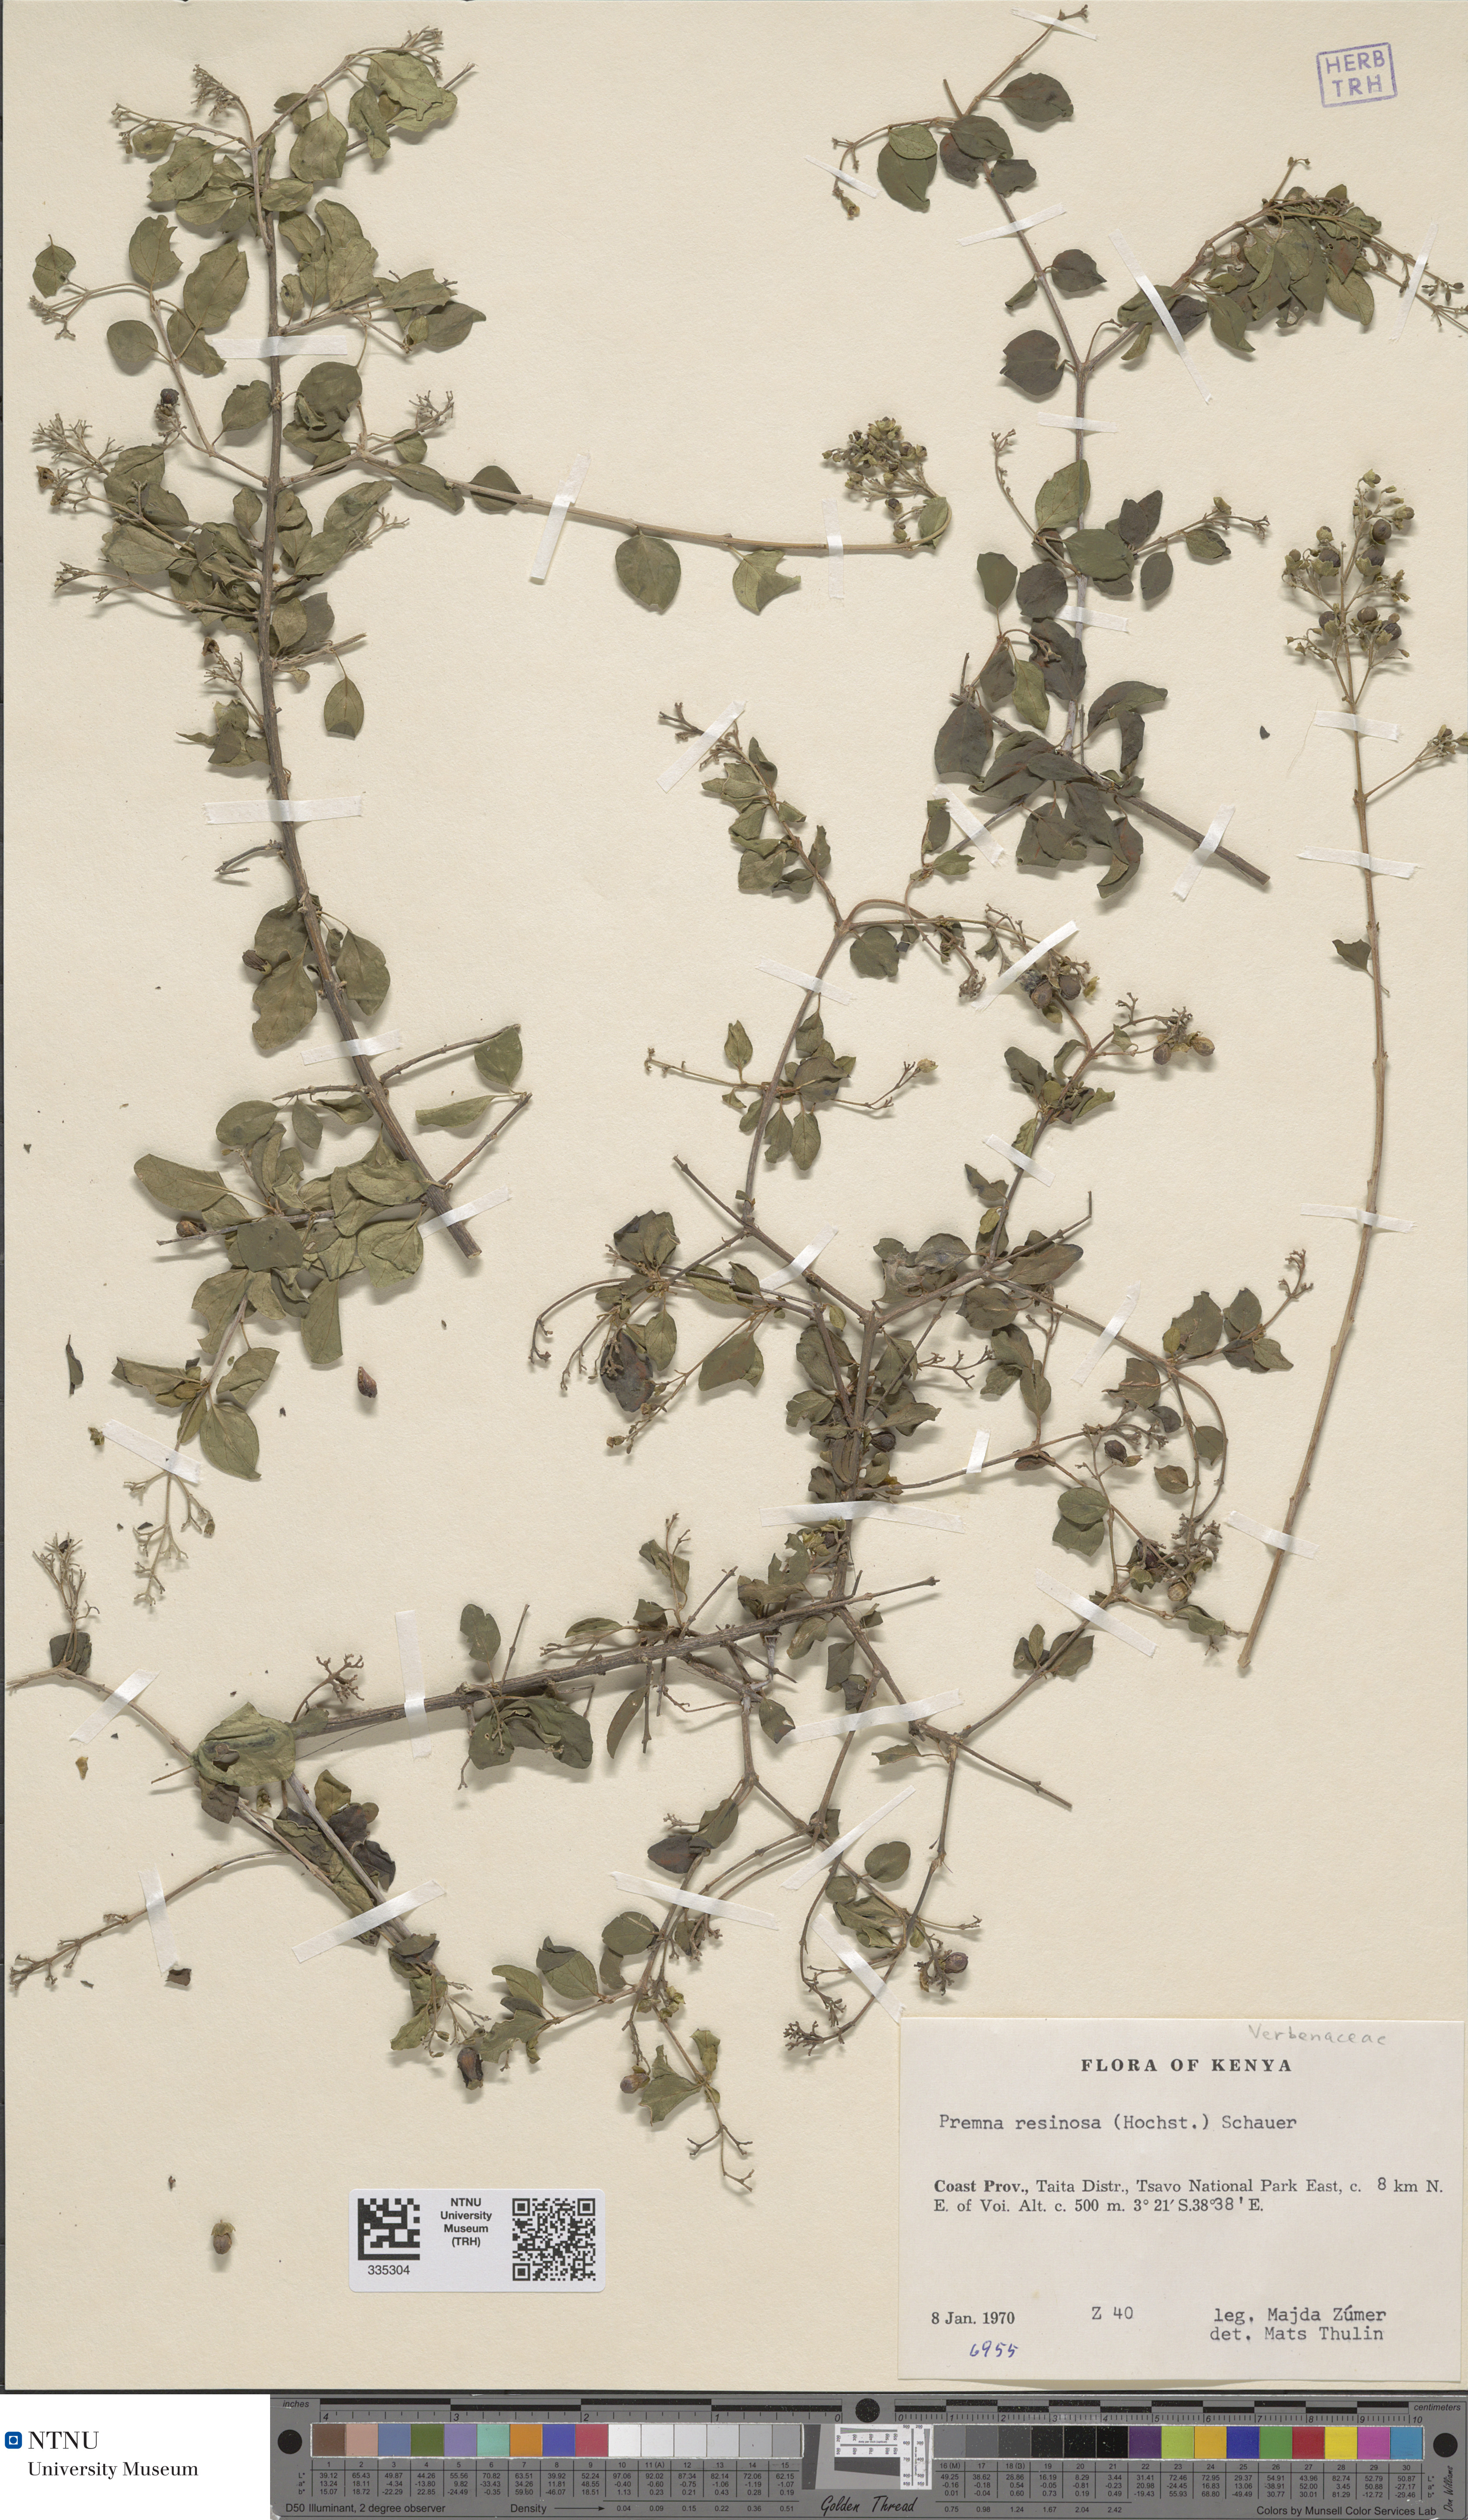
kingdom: Plantae
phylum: Tracheophyta
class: Magnoliopsida
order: Lamiales
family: Lamiaceae
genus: Premna
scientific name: Premna resinosa
